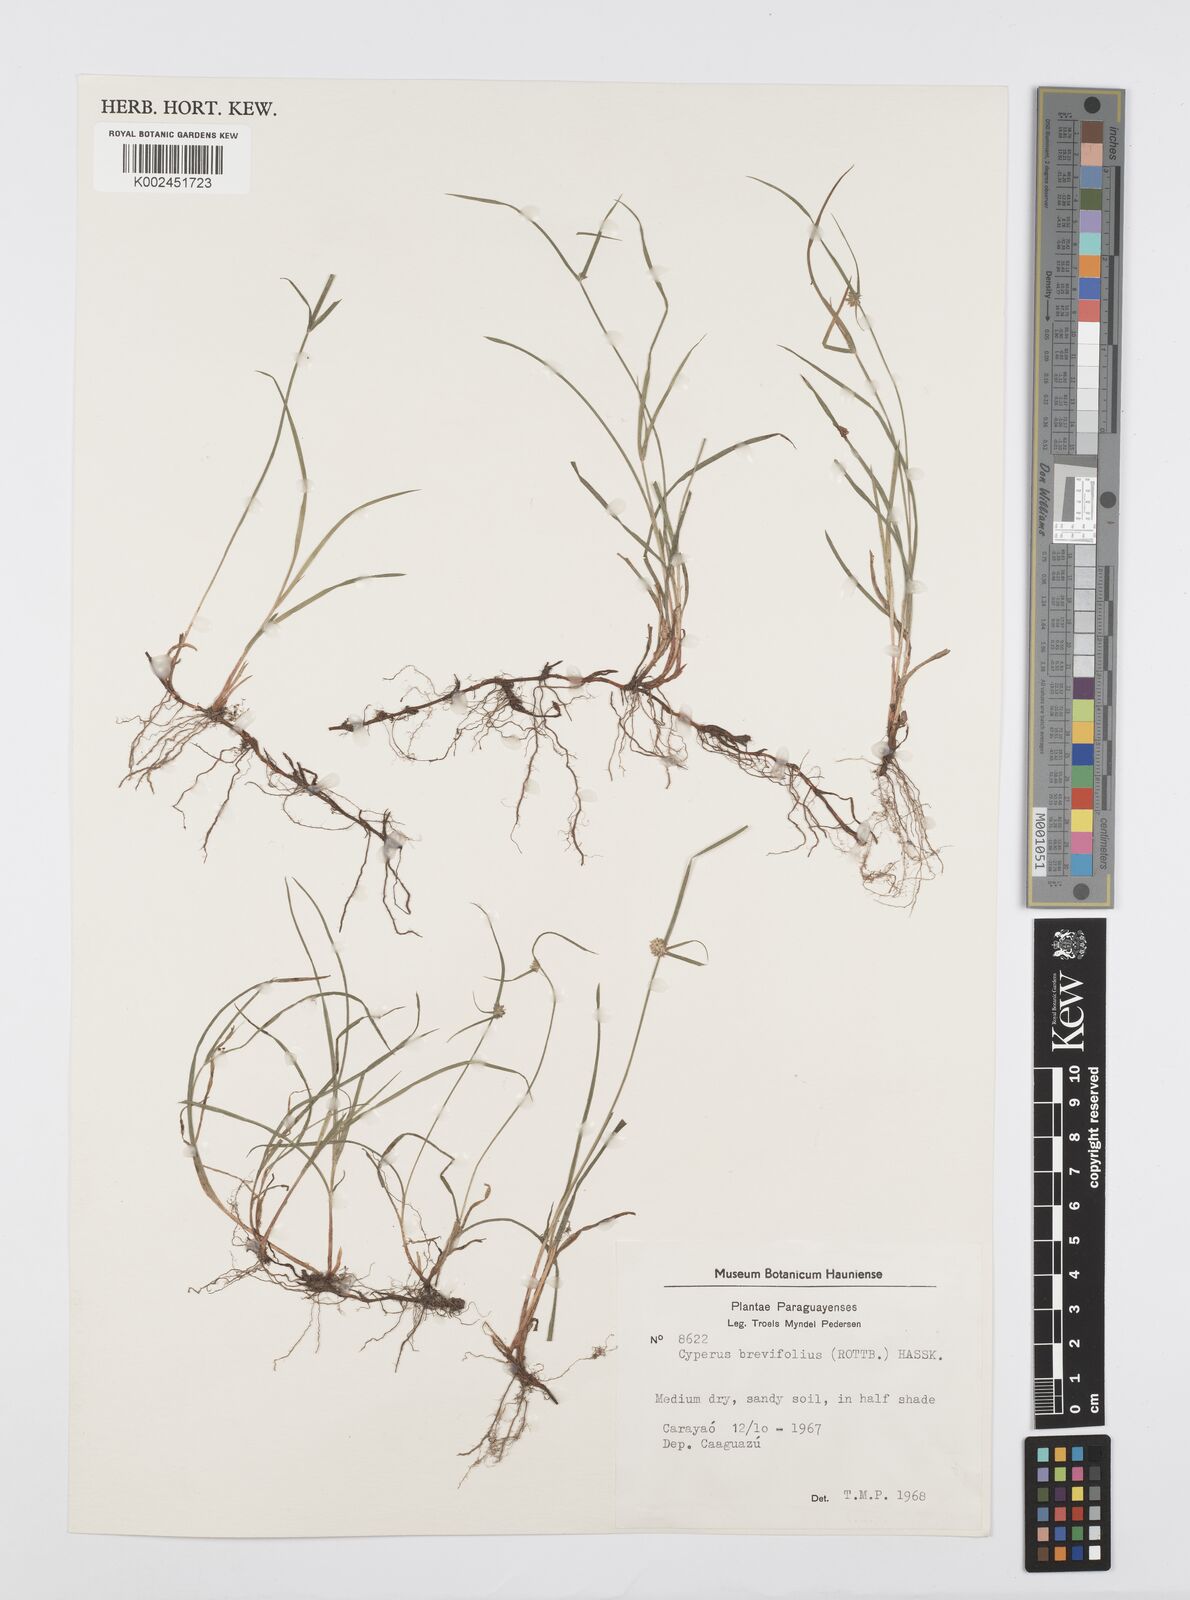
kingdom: Plantae
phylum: Tracheophyta
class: Liliopsida
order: Poales
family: Cyperaceae
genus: Cyperus
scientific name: Cyperus brevifolius
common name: Globe kyllinga
